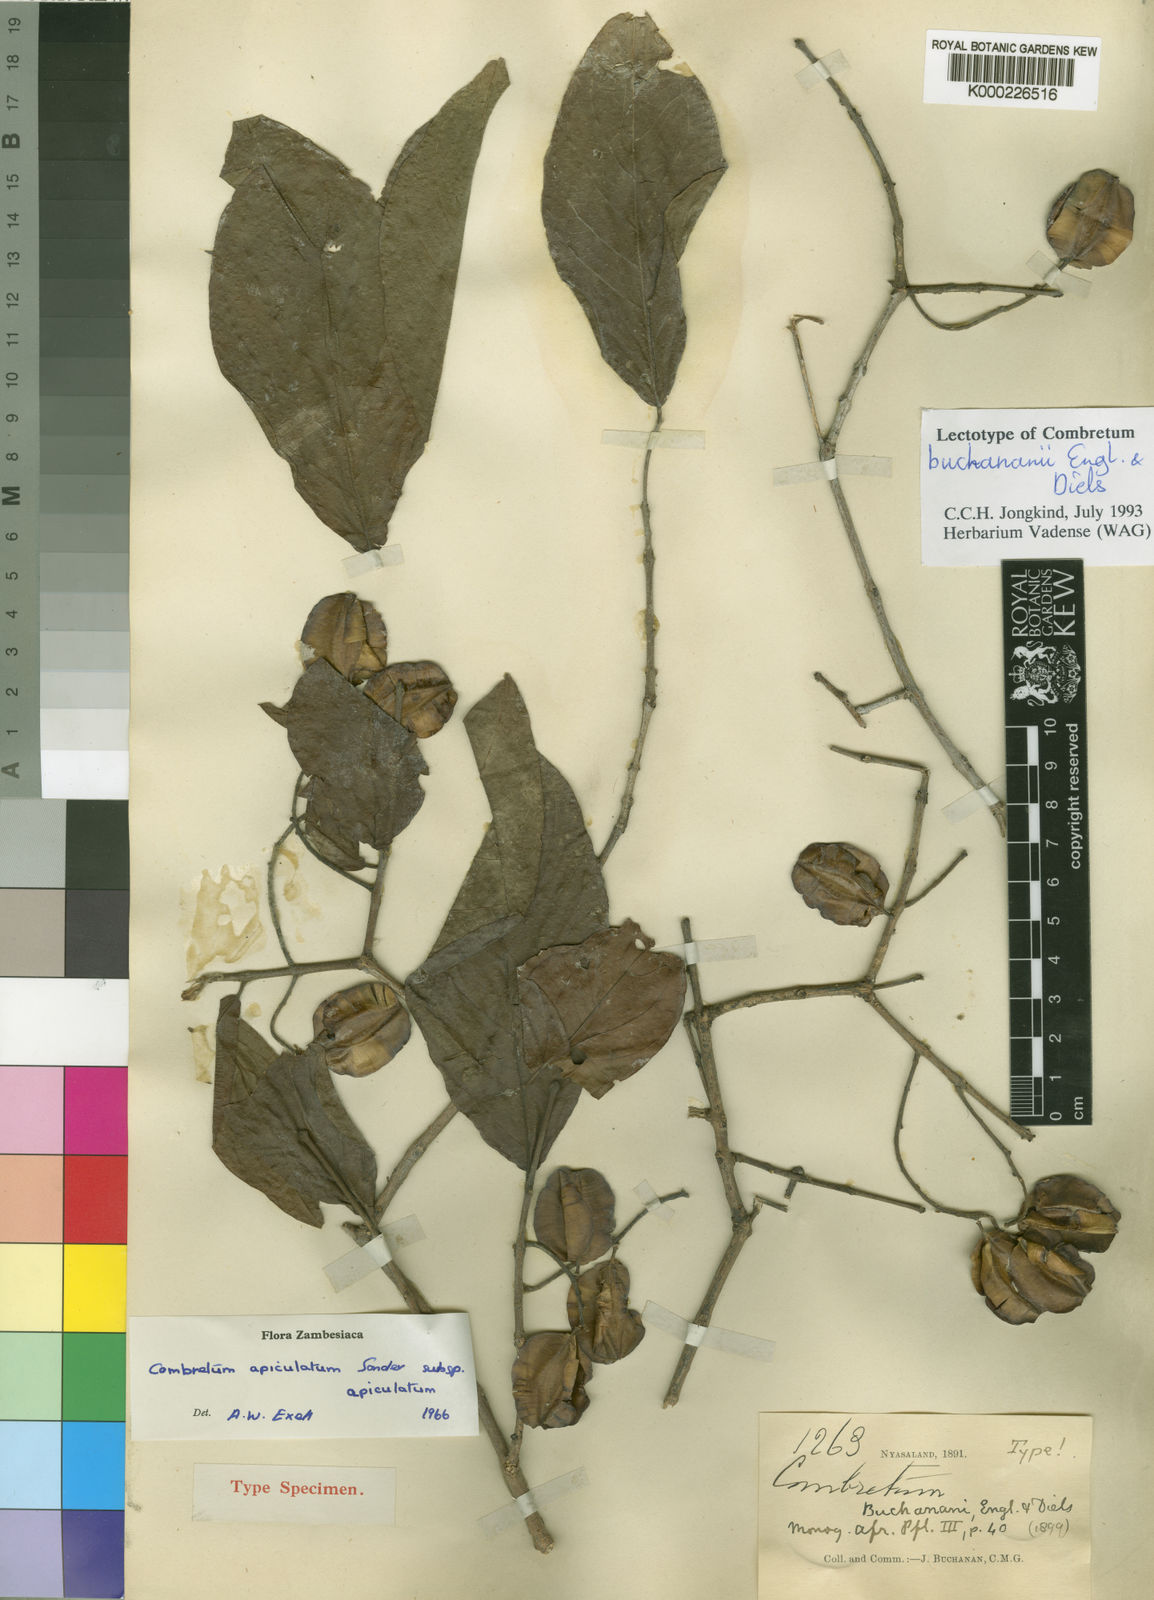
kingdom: Plantae
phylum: Tracheophyta
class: Magnoliopsida
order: Myrtales
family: Combretaceae
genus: Combretum
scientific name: Combretum apiculatum
